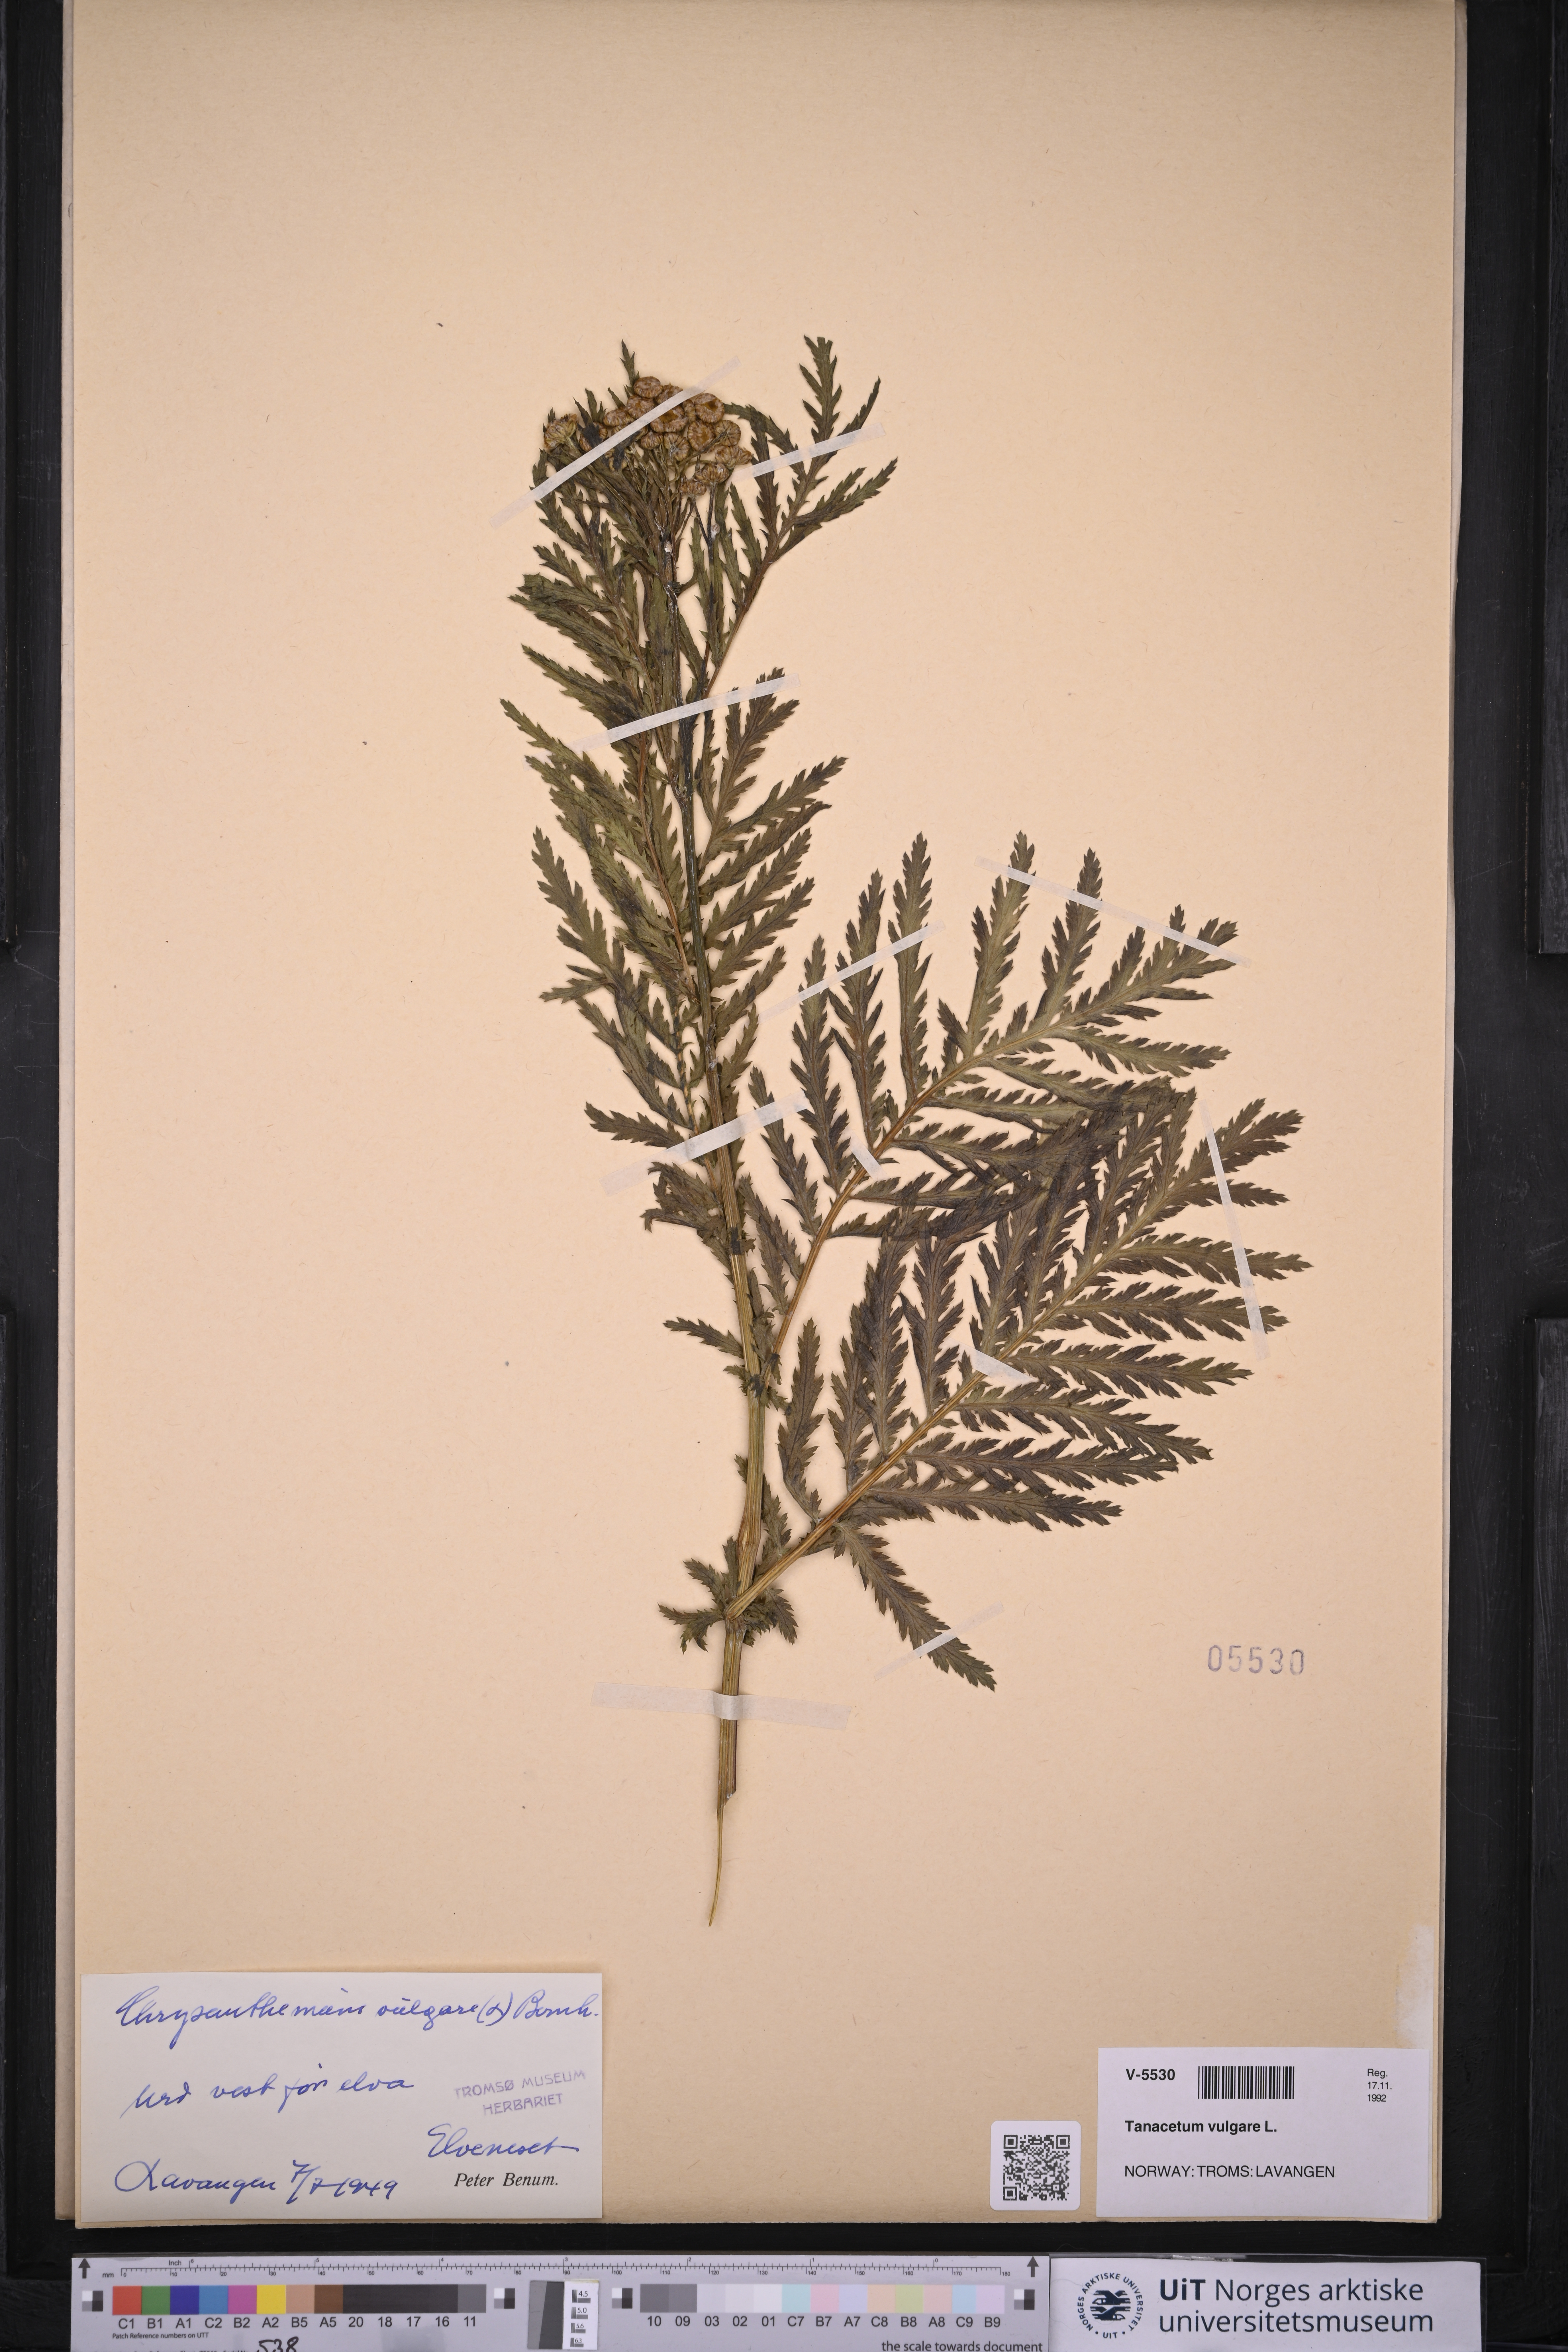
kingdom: Plantae
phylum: Tracheophyta
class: Magnoliopsida
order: Asterales
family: Asteraceae
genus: Tanacetum
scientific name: Tanacetum vulgare
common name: Common tansy
